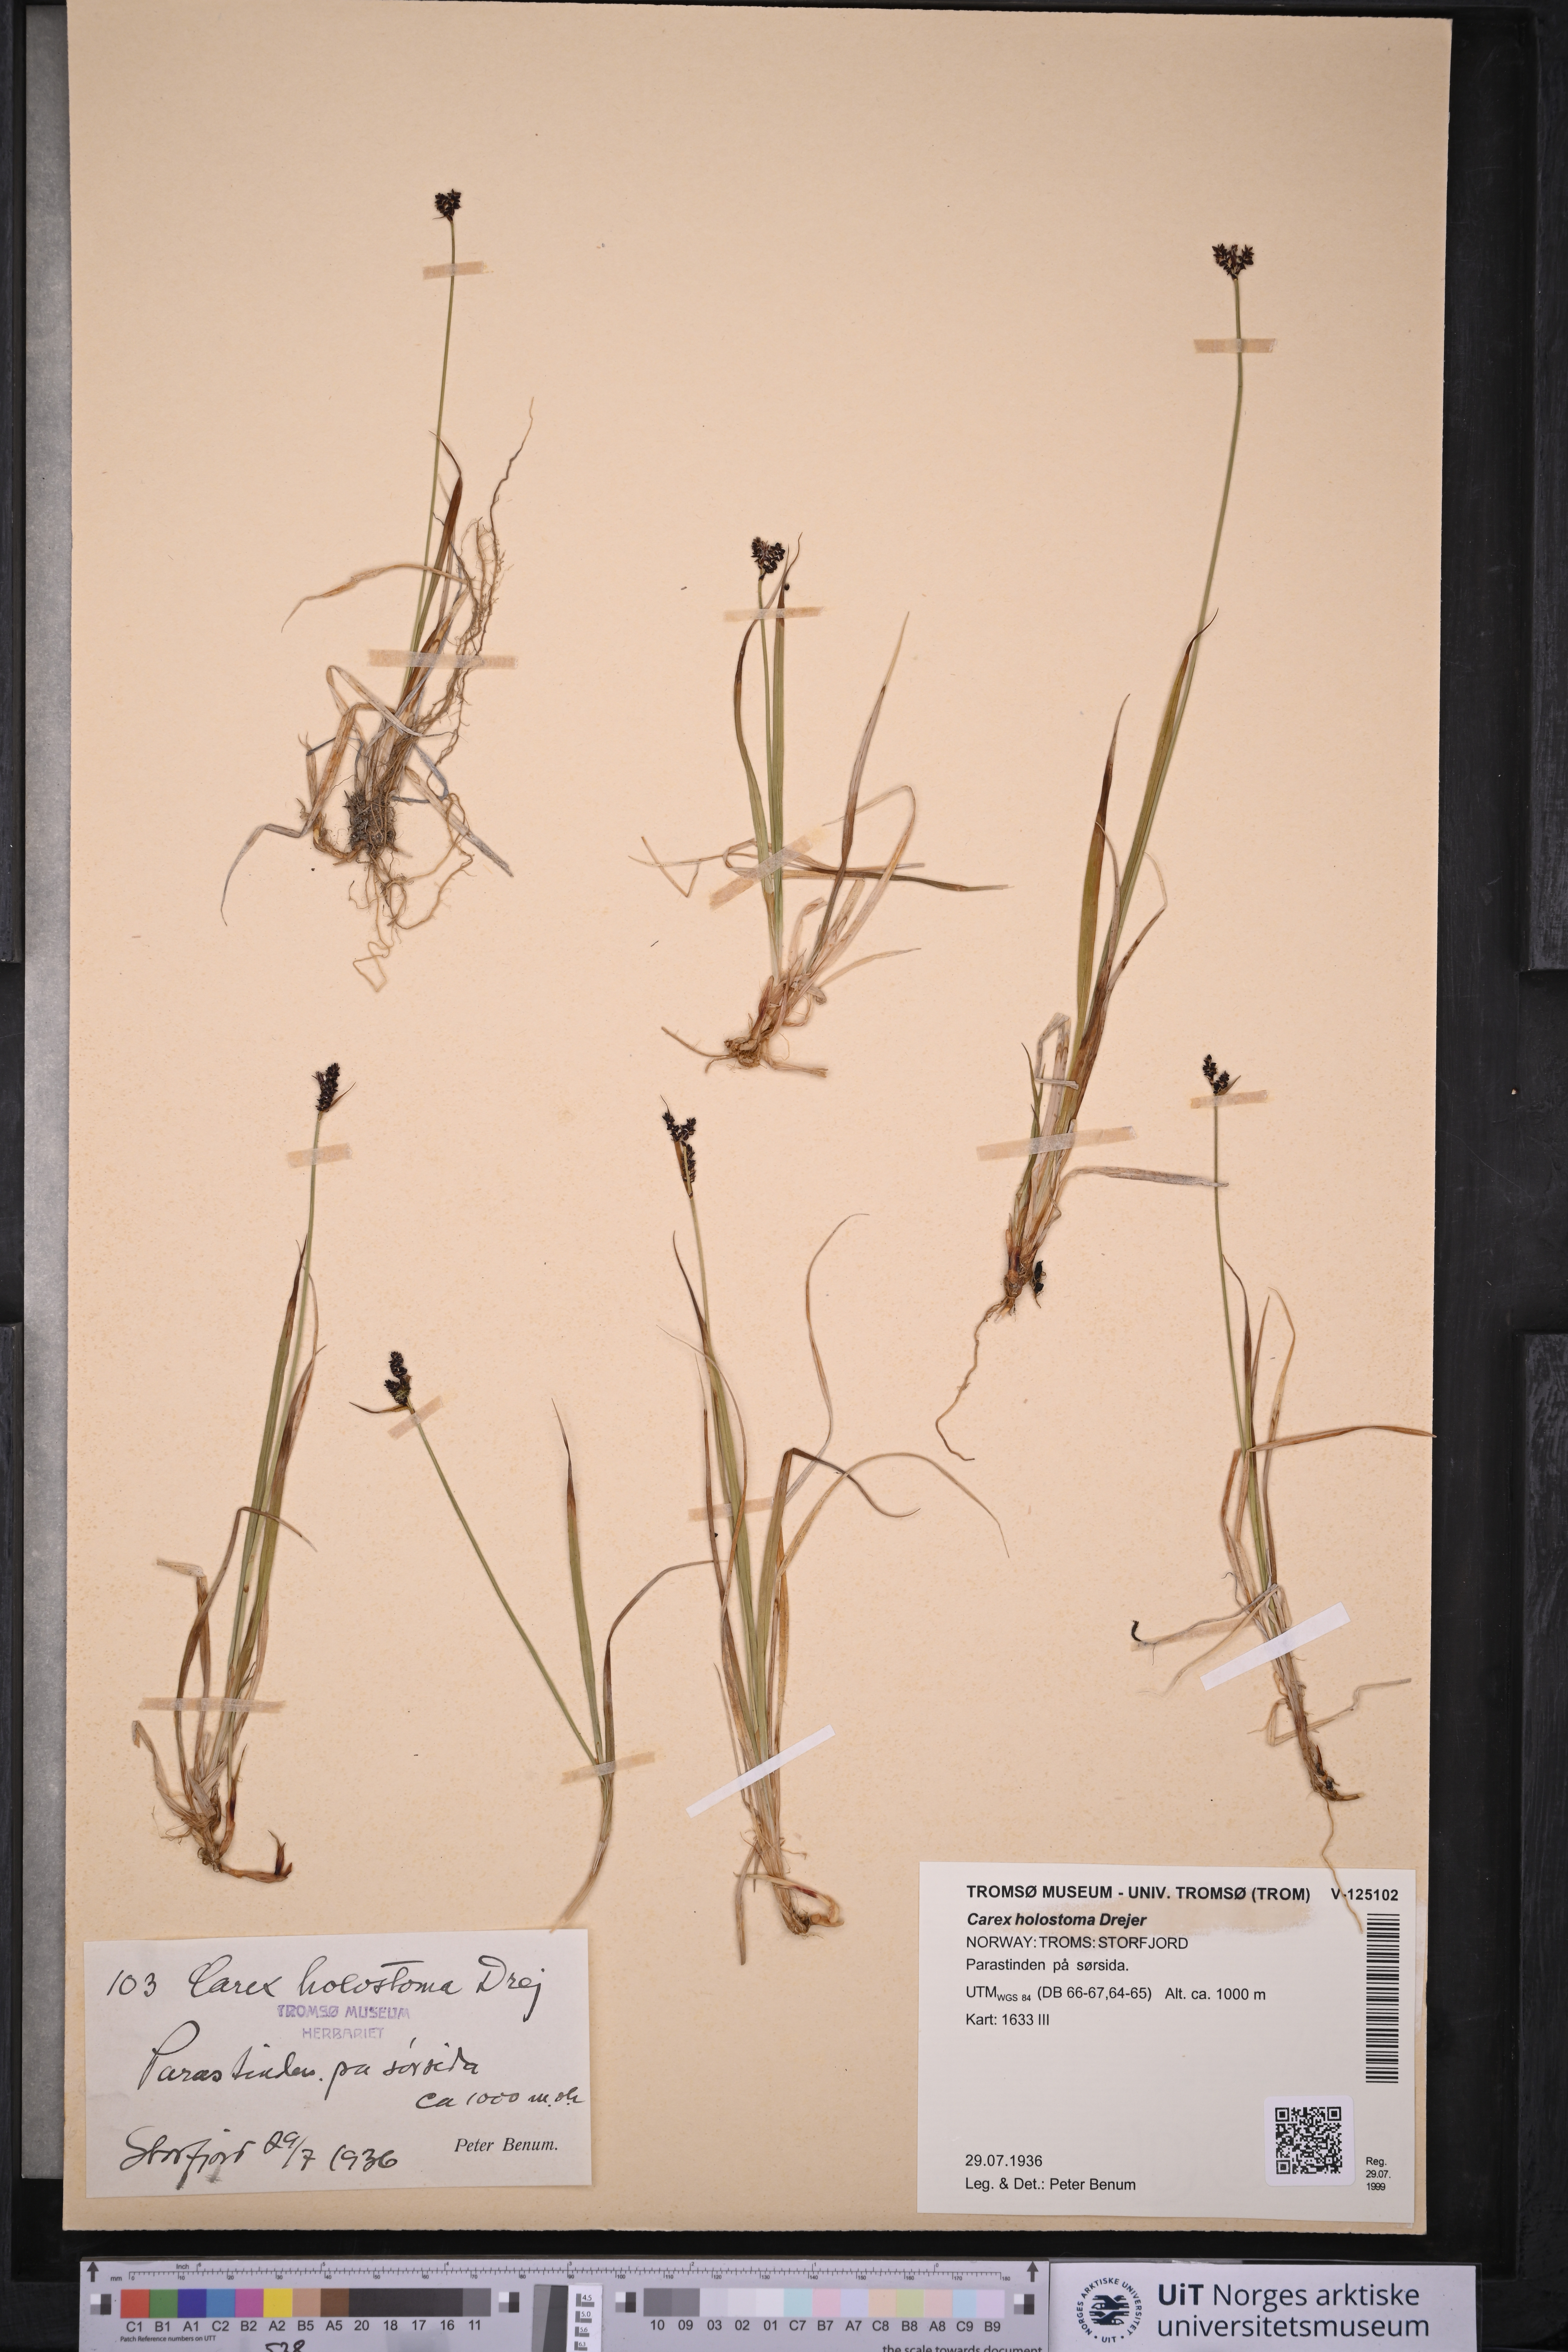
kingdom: Plantae
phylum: Tracheophyta
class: Liliopsida
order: Poales
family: Cyperaceae
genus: Carex
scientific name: Carex holostoma
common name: Arctic marsh sedge
